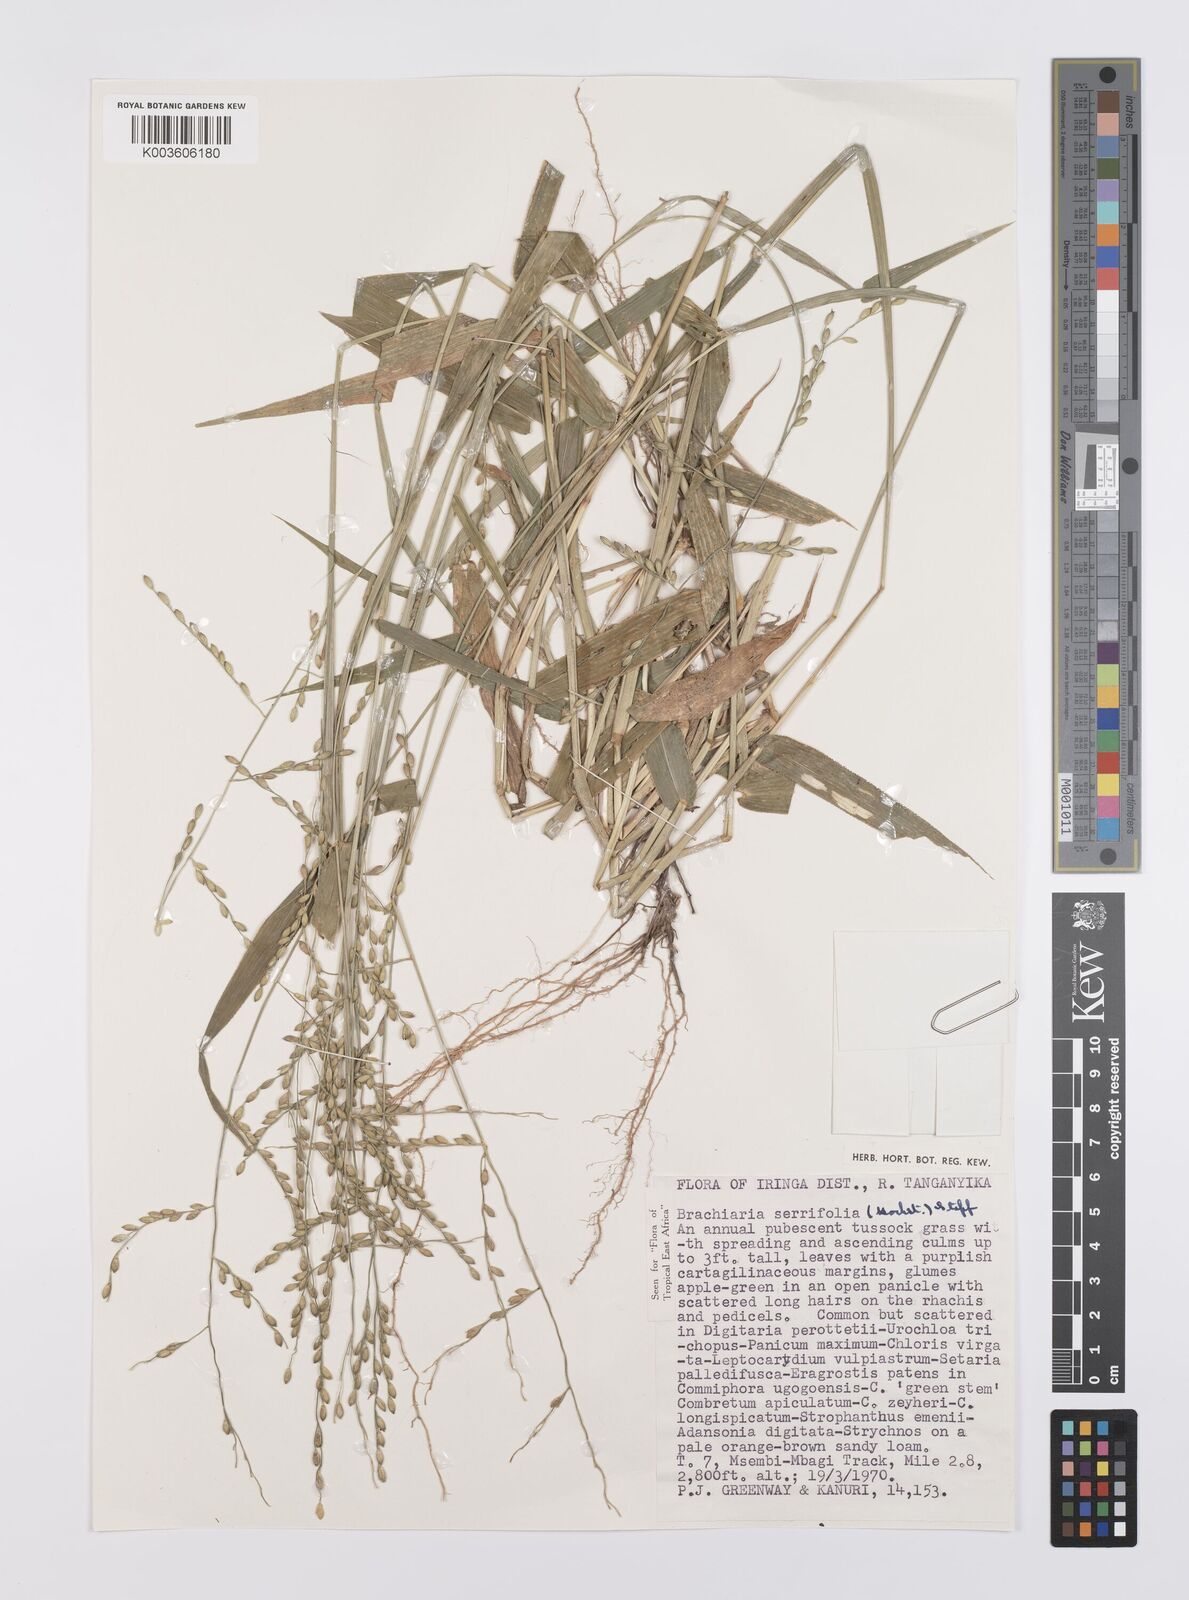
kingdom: Plantae
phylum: Tracheophyta
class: Liliopsida
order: Poales
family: Poaceae
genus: Urochloa
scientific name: Urochloa serrifolia
